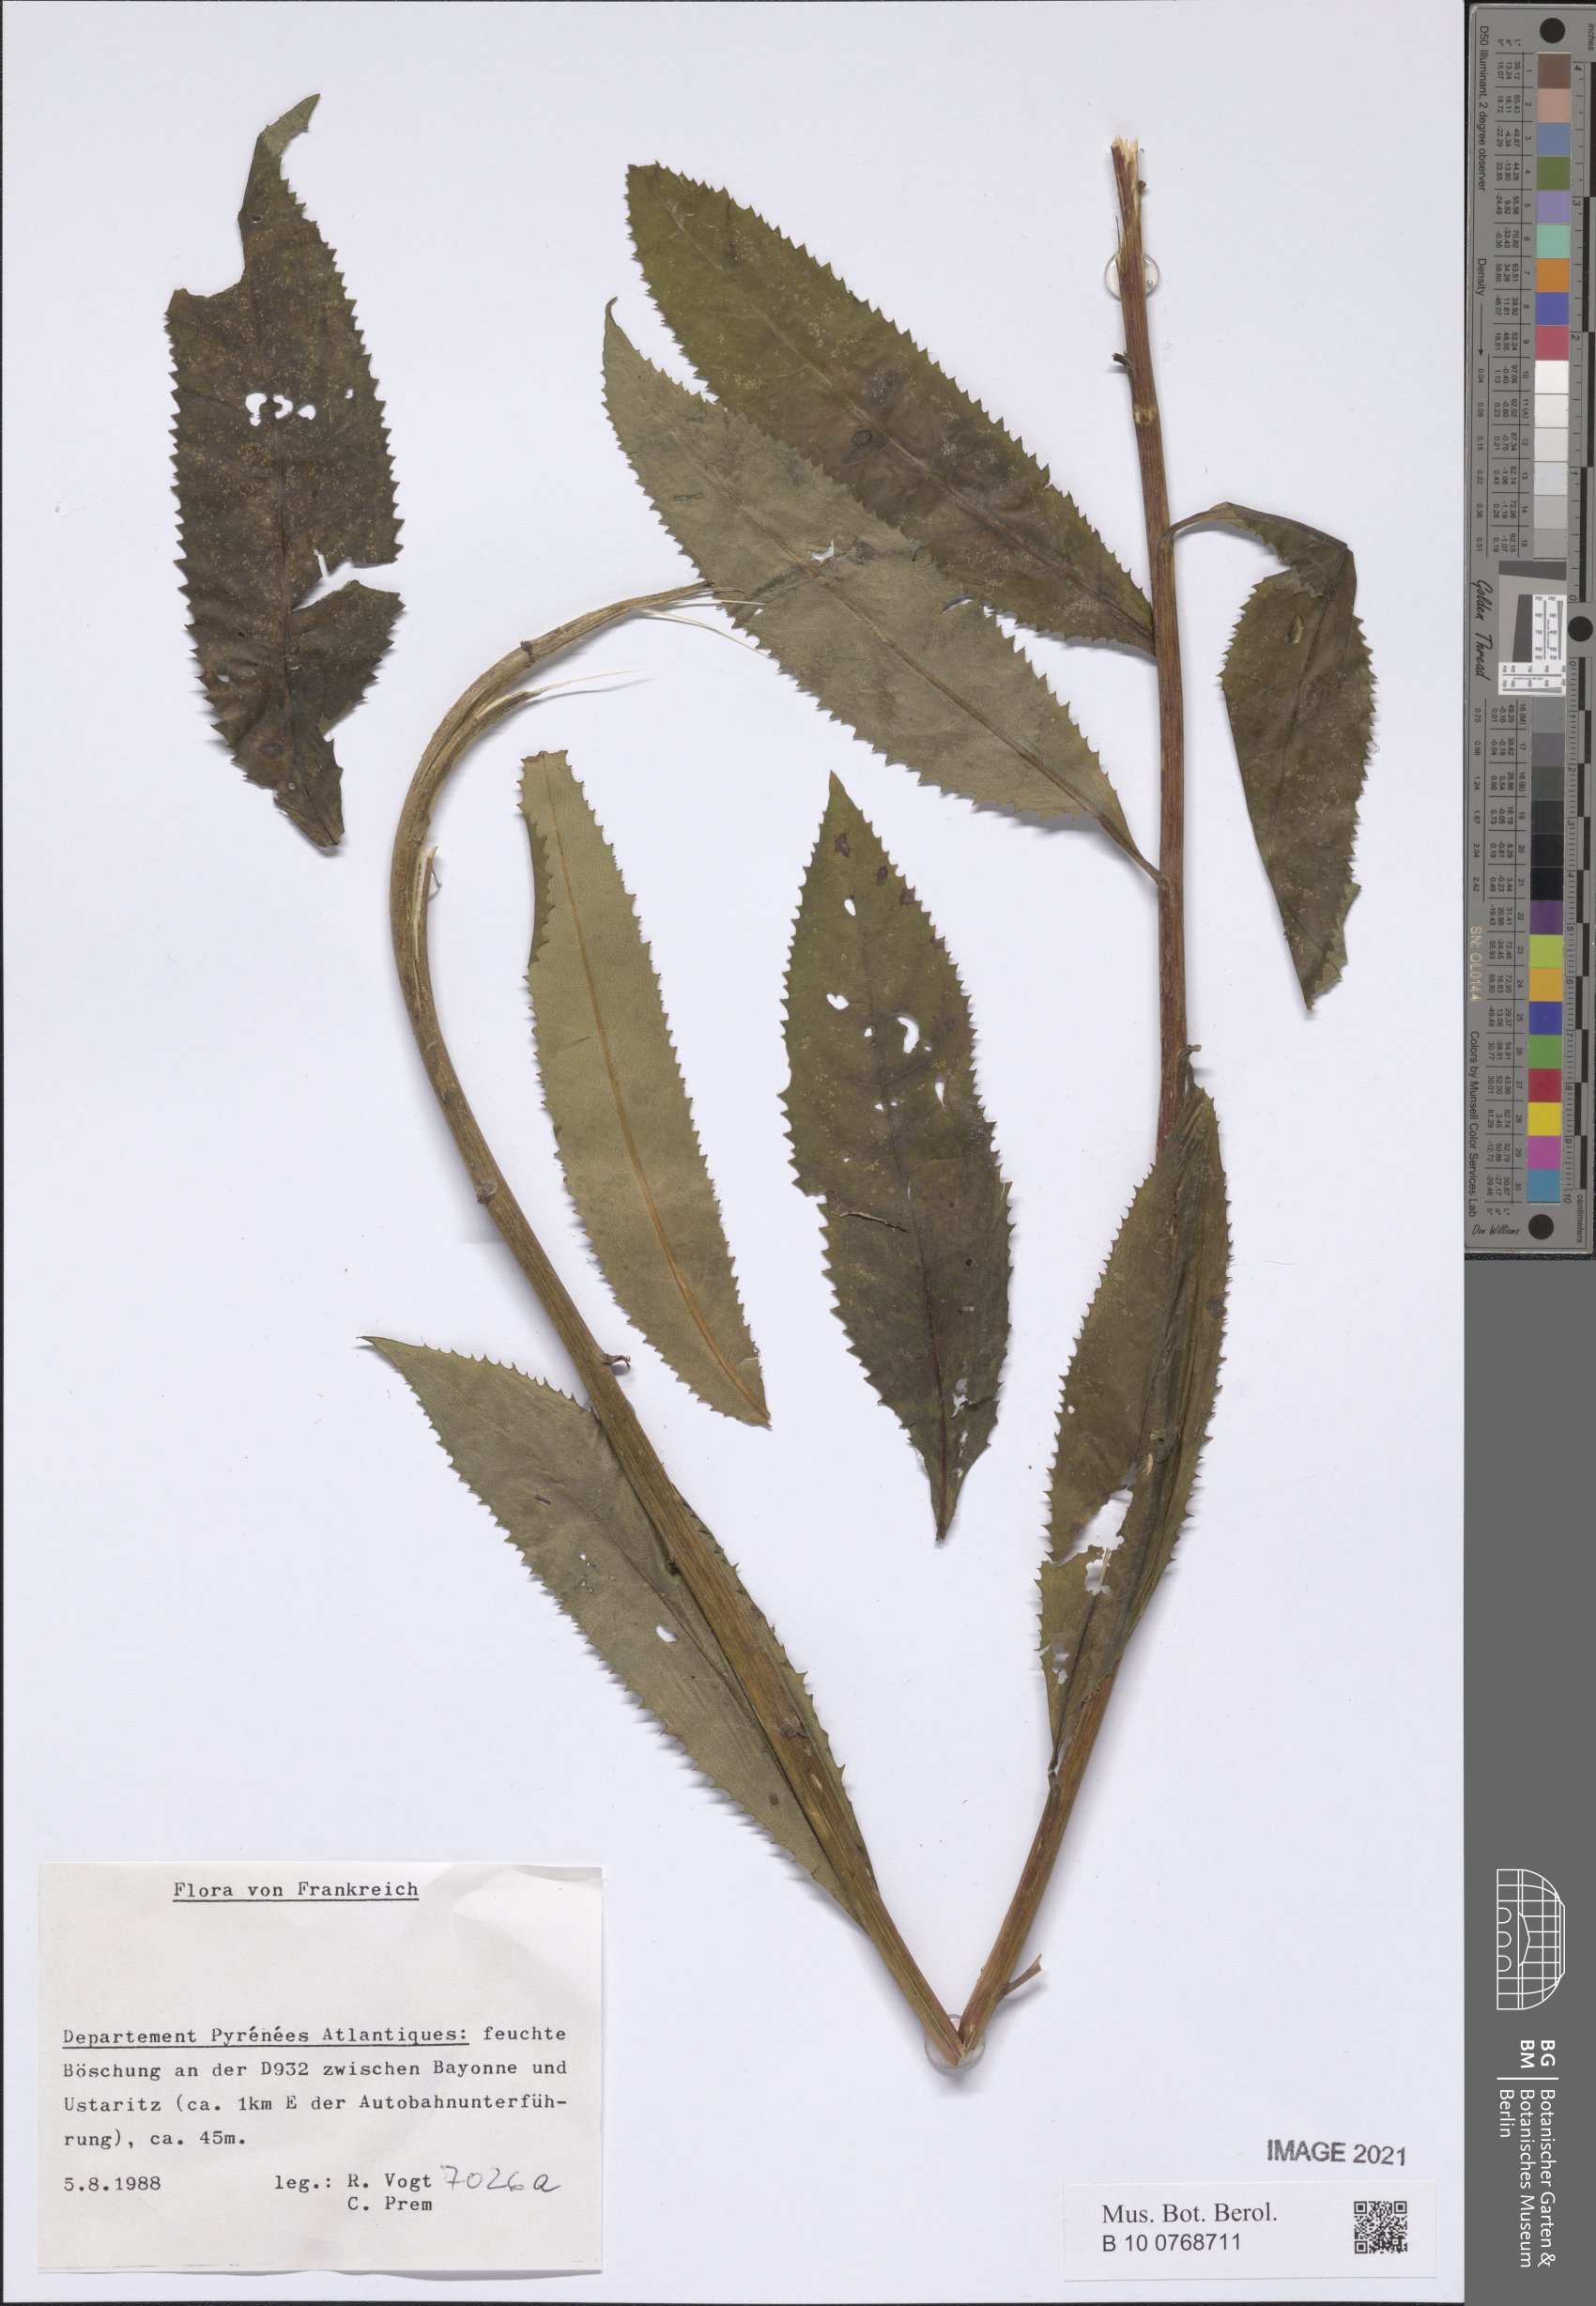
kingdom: Plantae
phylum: Tracheophyta
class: Magnoliopsida
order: Asterales
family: Asteraceae
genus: Senecio
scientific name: Senecio
